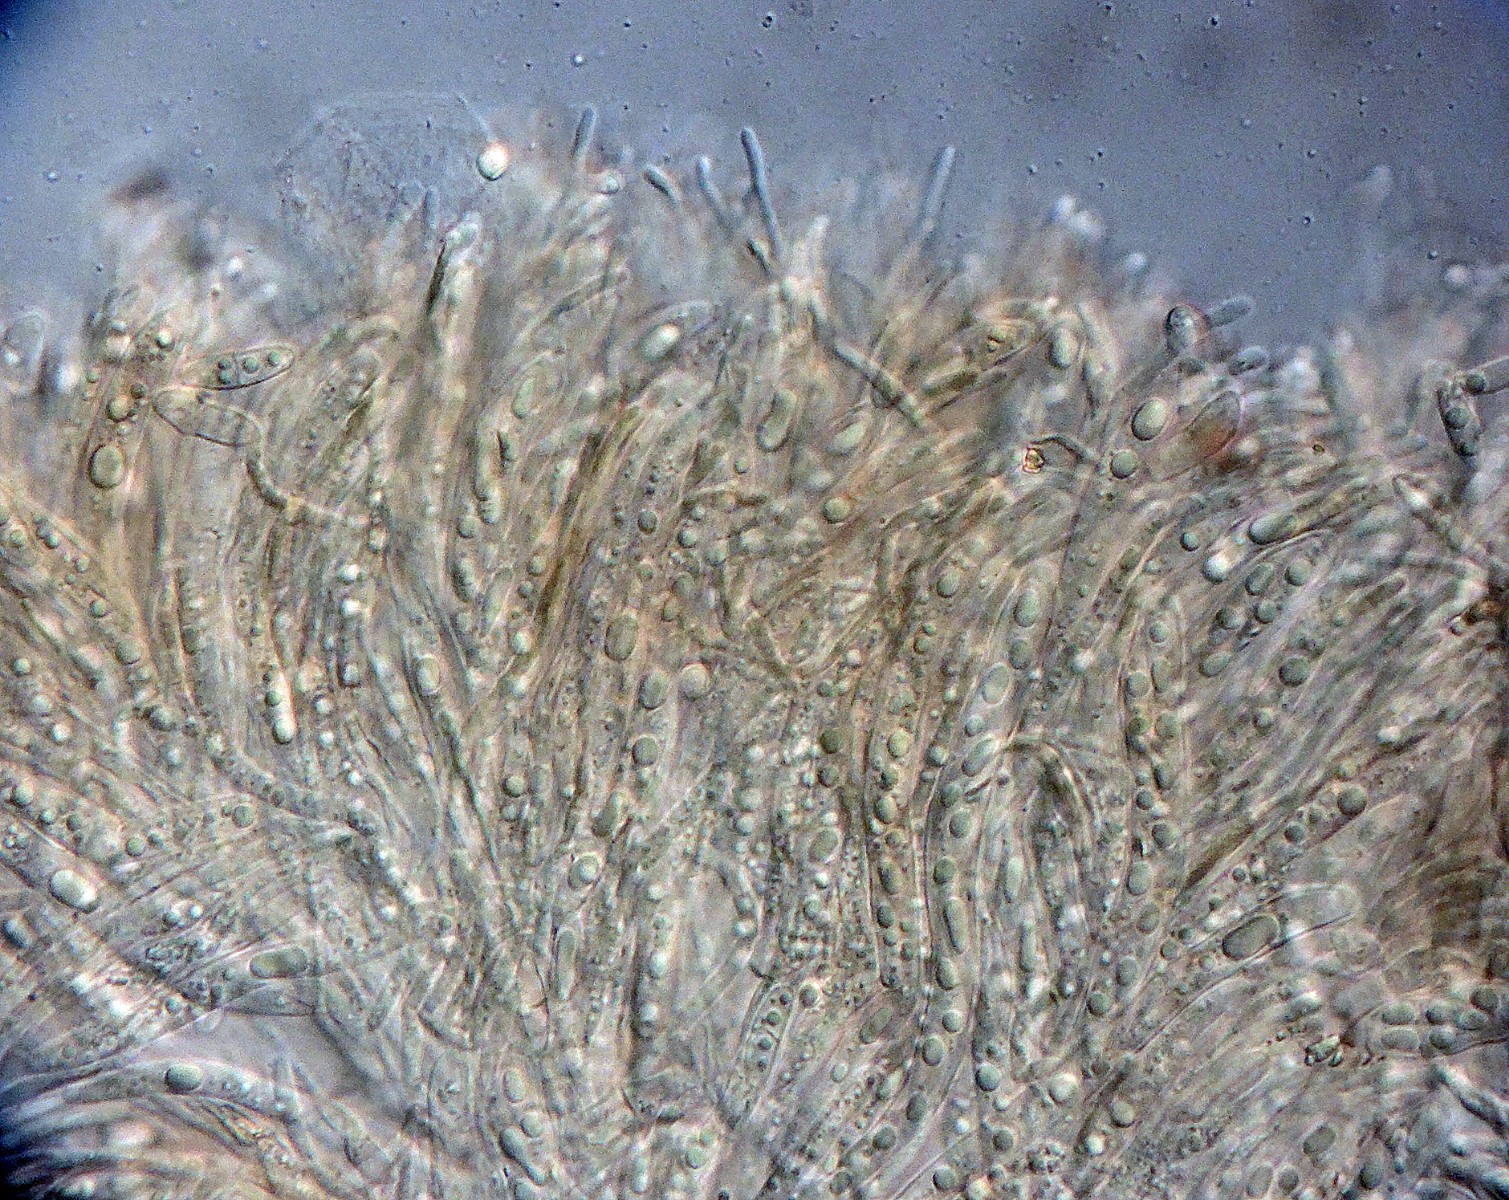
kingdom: Fungi
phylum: Ascomycota
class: Leotiomycetes
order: Helotiales
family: Helotiaceae
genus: Hymenoscyphus
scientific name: Hymenoscyphus calyculus
